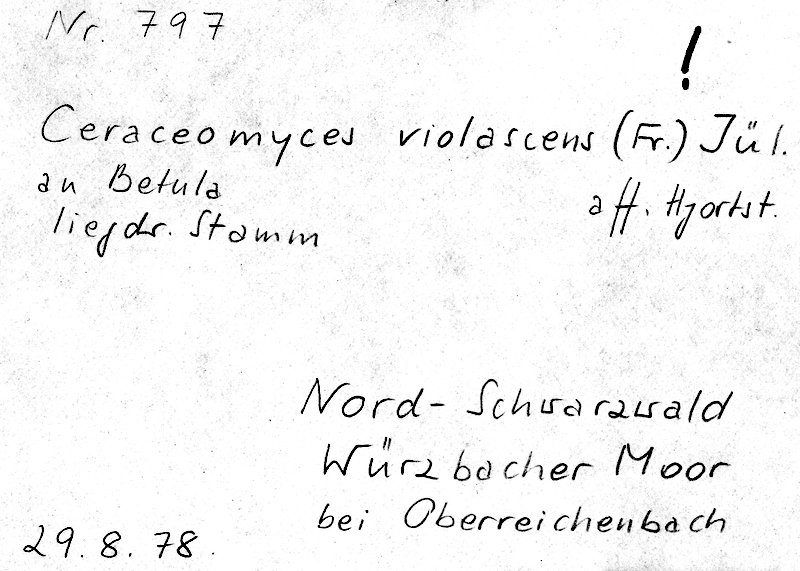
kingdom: Fungi
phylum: Basidiomycota
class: Agaricomycetes
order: Polyporales
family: Phanerochaetaceae
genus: Rhizochaete
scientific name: Rhizochaete violascens
